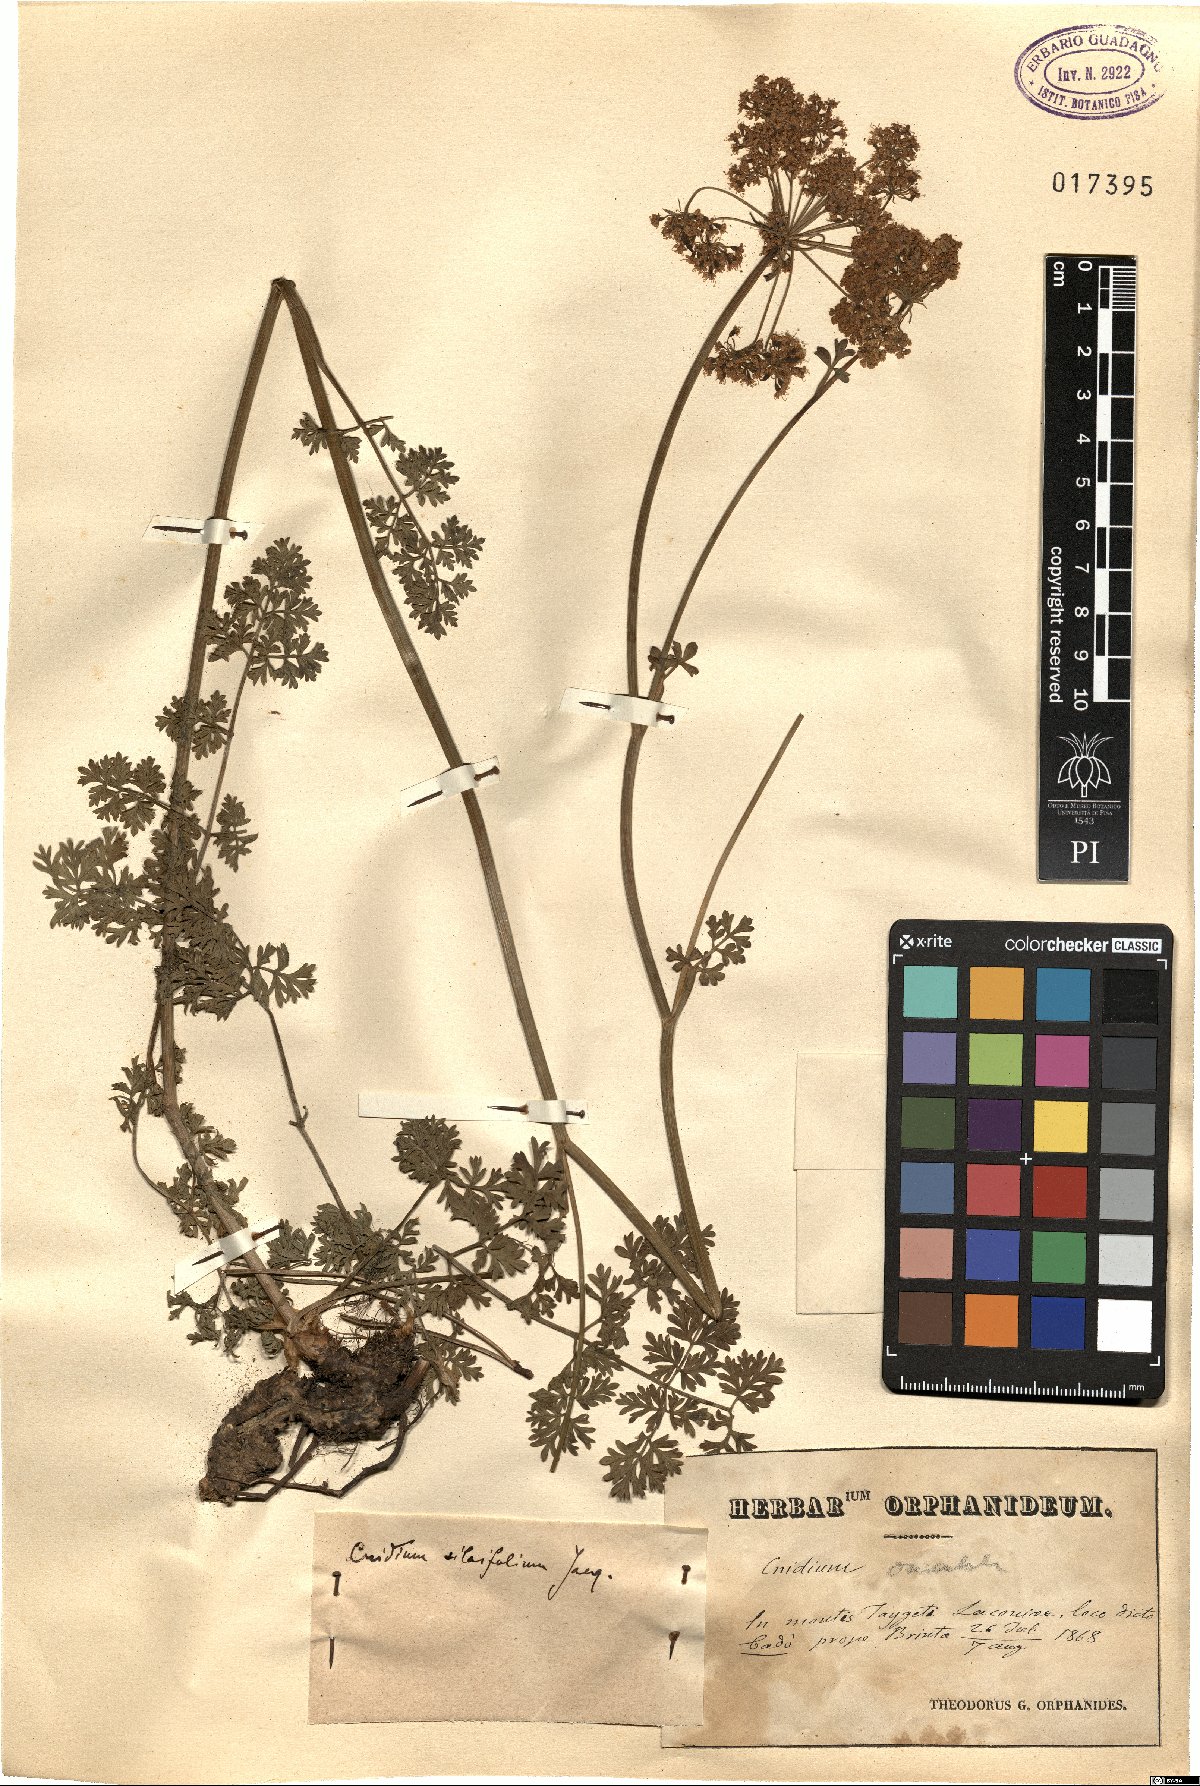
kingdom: Plantae
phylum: Tracheophyta
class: Magnoliopsida
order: Apiales
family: Apiaceae
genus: Katapsuxis
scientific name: Katapsuxis silaifolia
